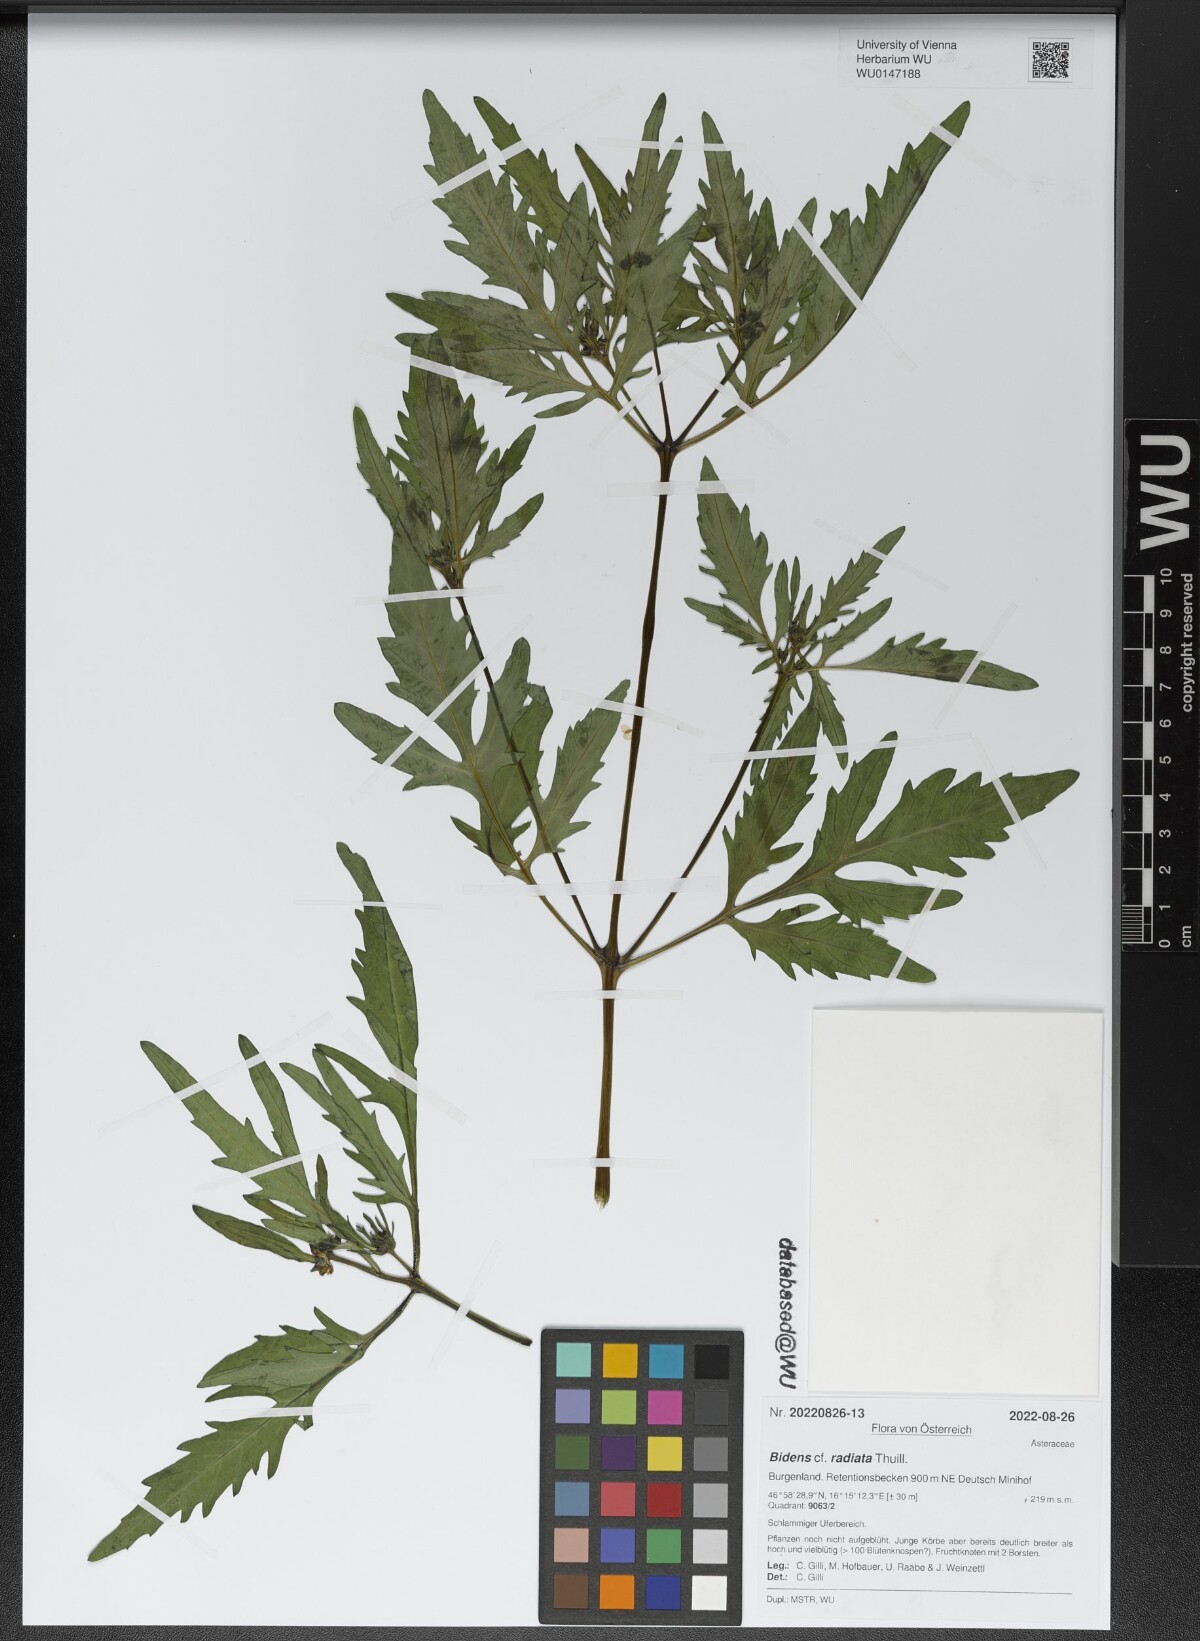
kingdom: Plantae
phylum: Tracheophyta
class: Magnoliopsida
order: Asterales
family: Asteraceae
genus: Bidens
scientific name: Bidens radiata
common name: Radiating bur-marigold
